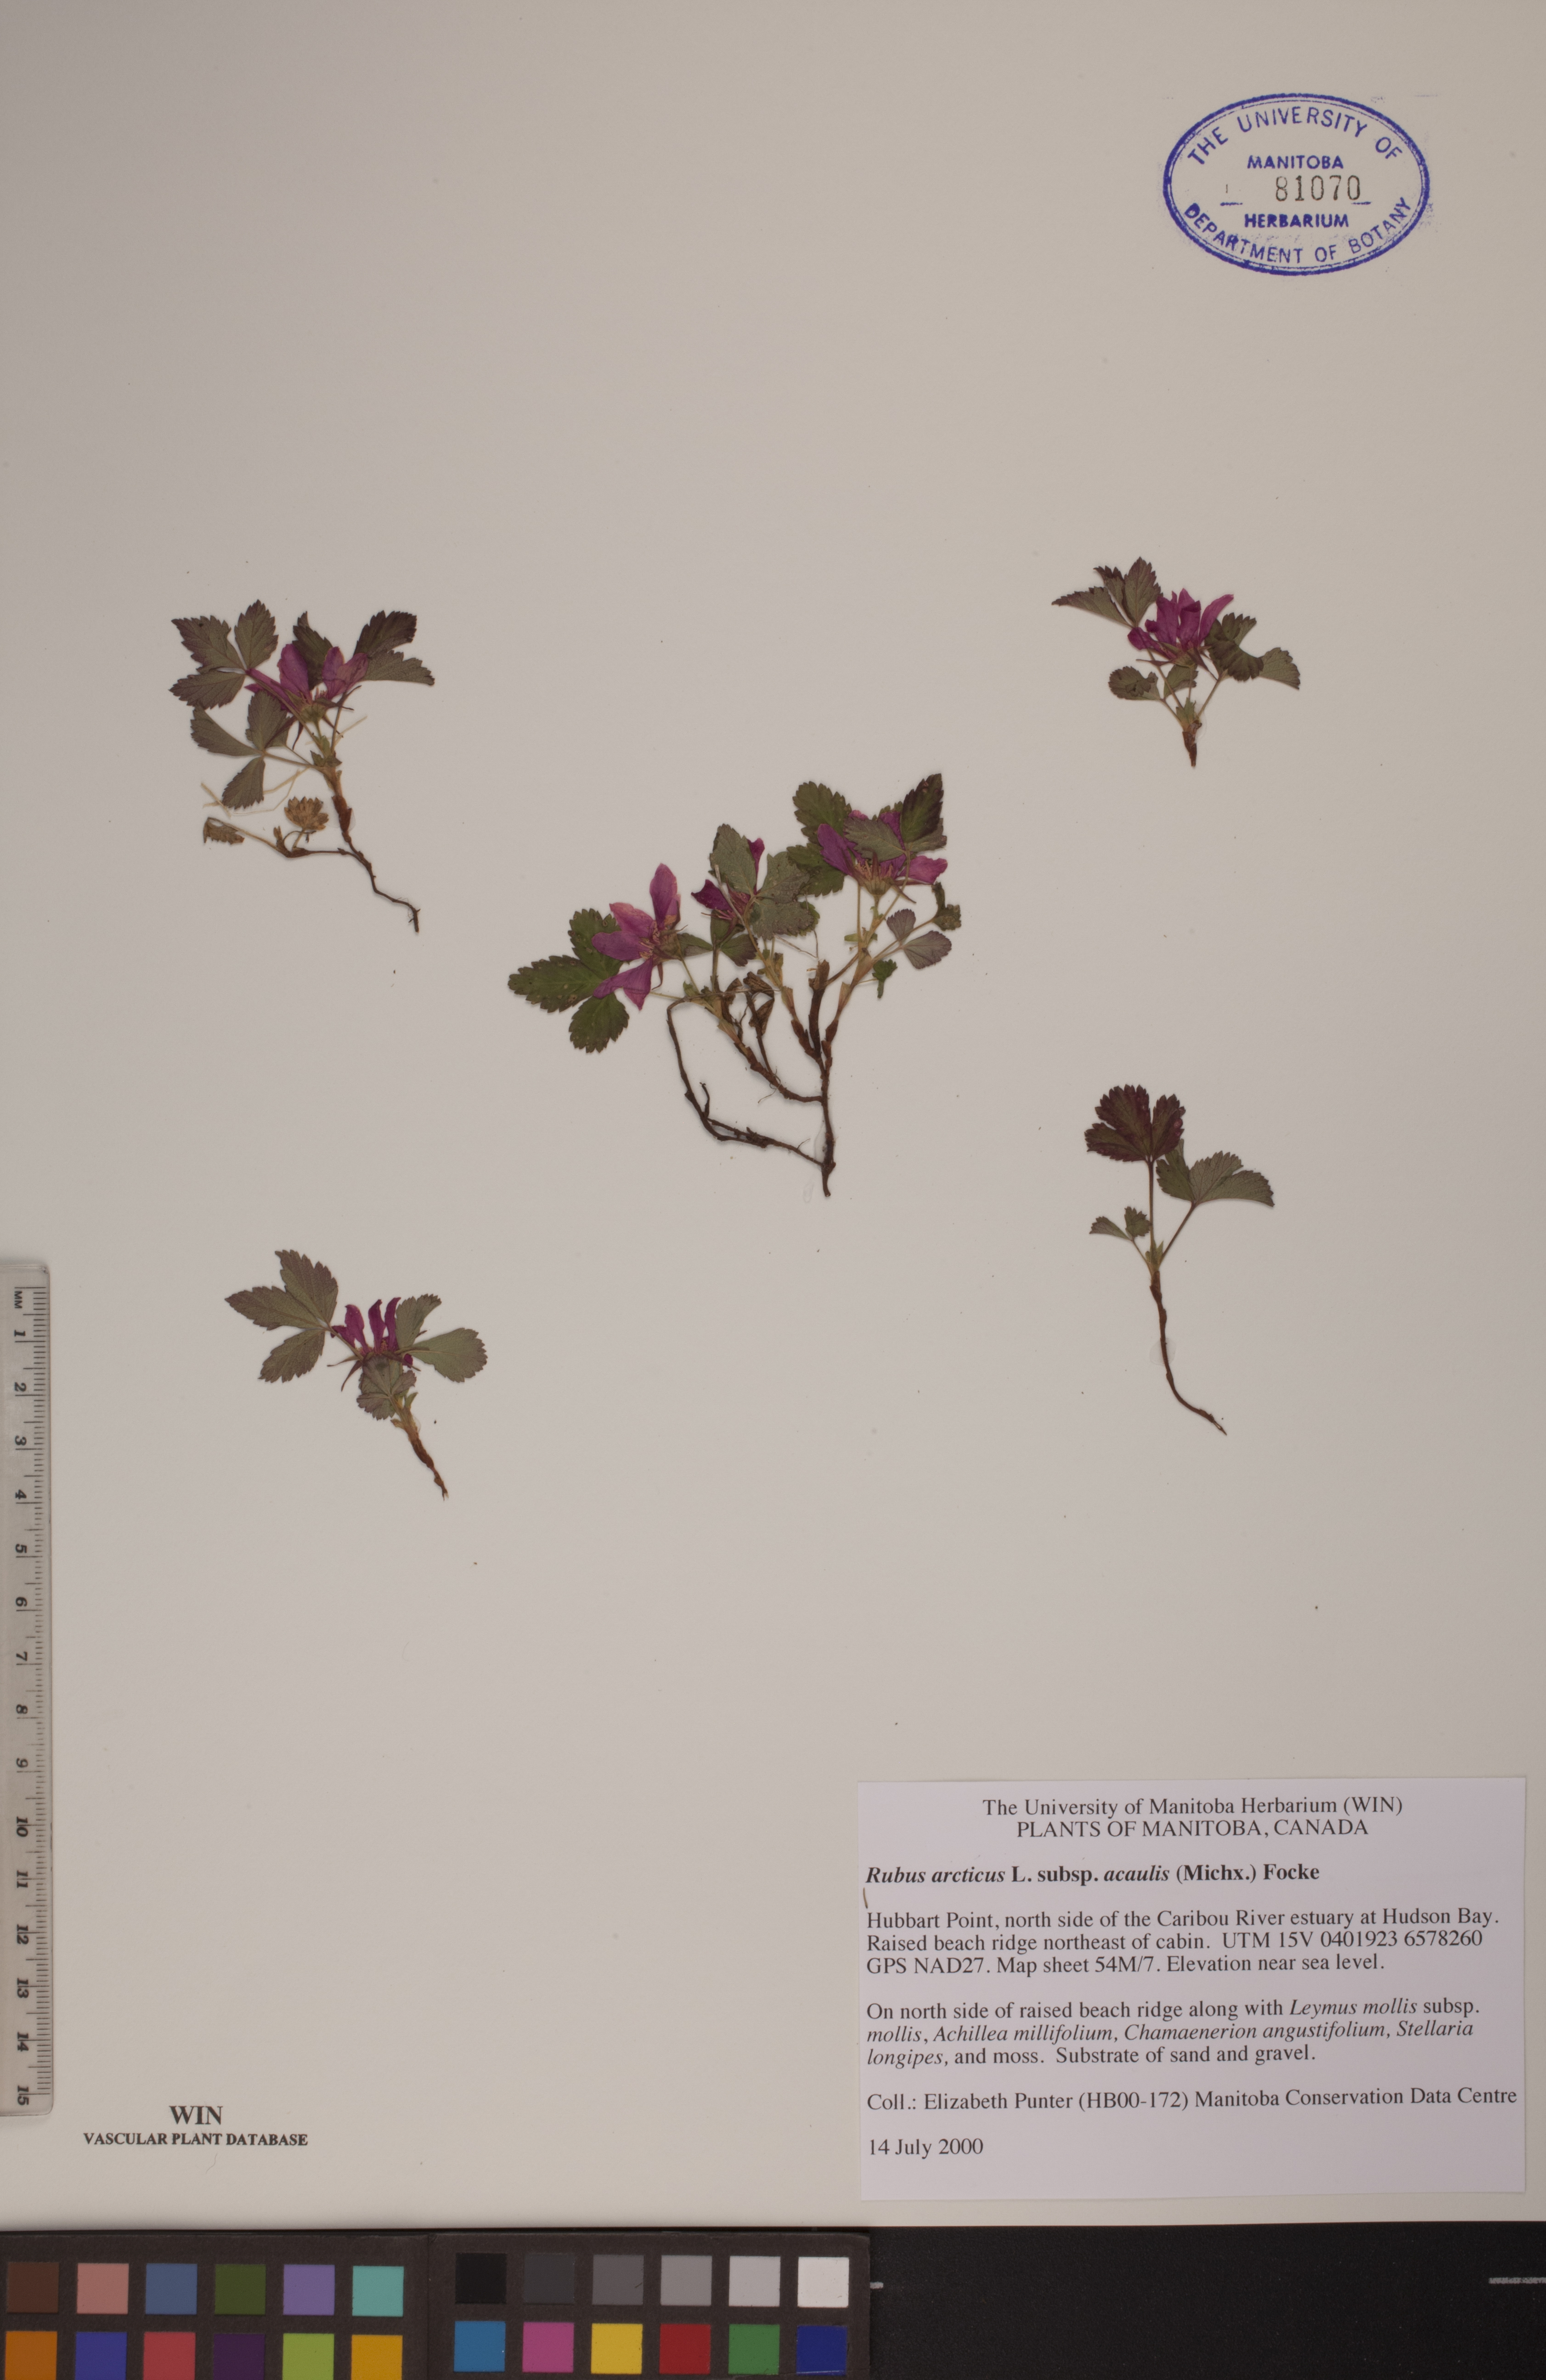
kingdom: Plantae
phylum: Tracheophyta
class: Magnoliopsida
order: Rosales
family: Rosaceae
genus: Rubus
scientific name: Rubus arcticus
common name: Arctic bramble
